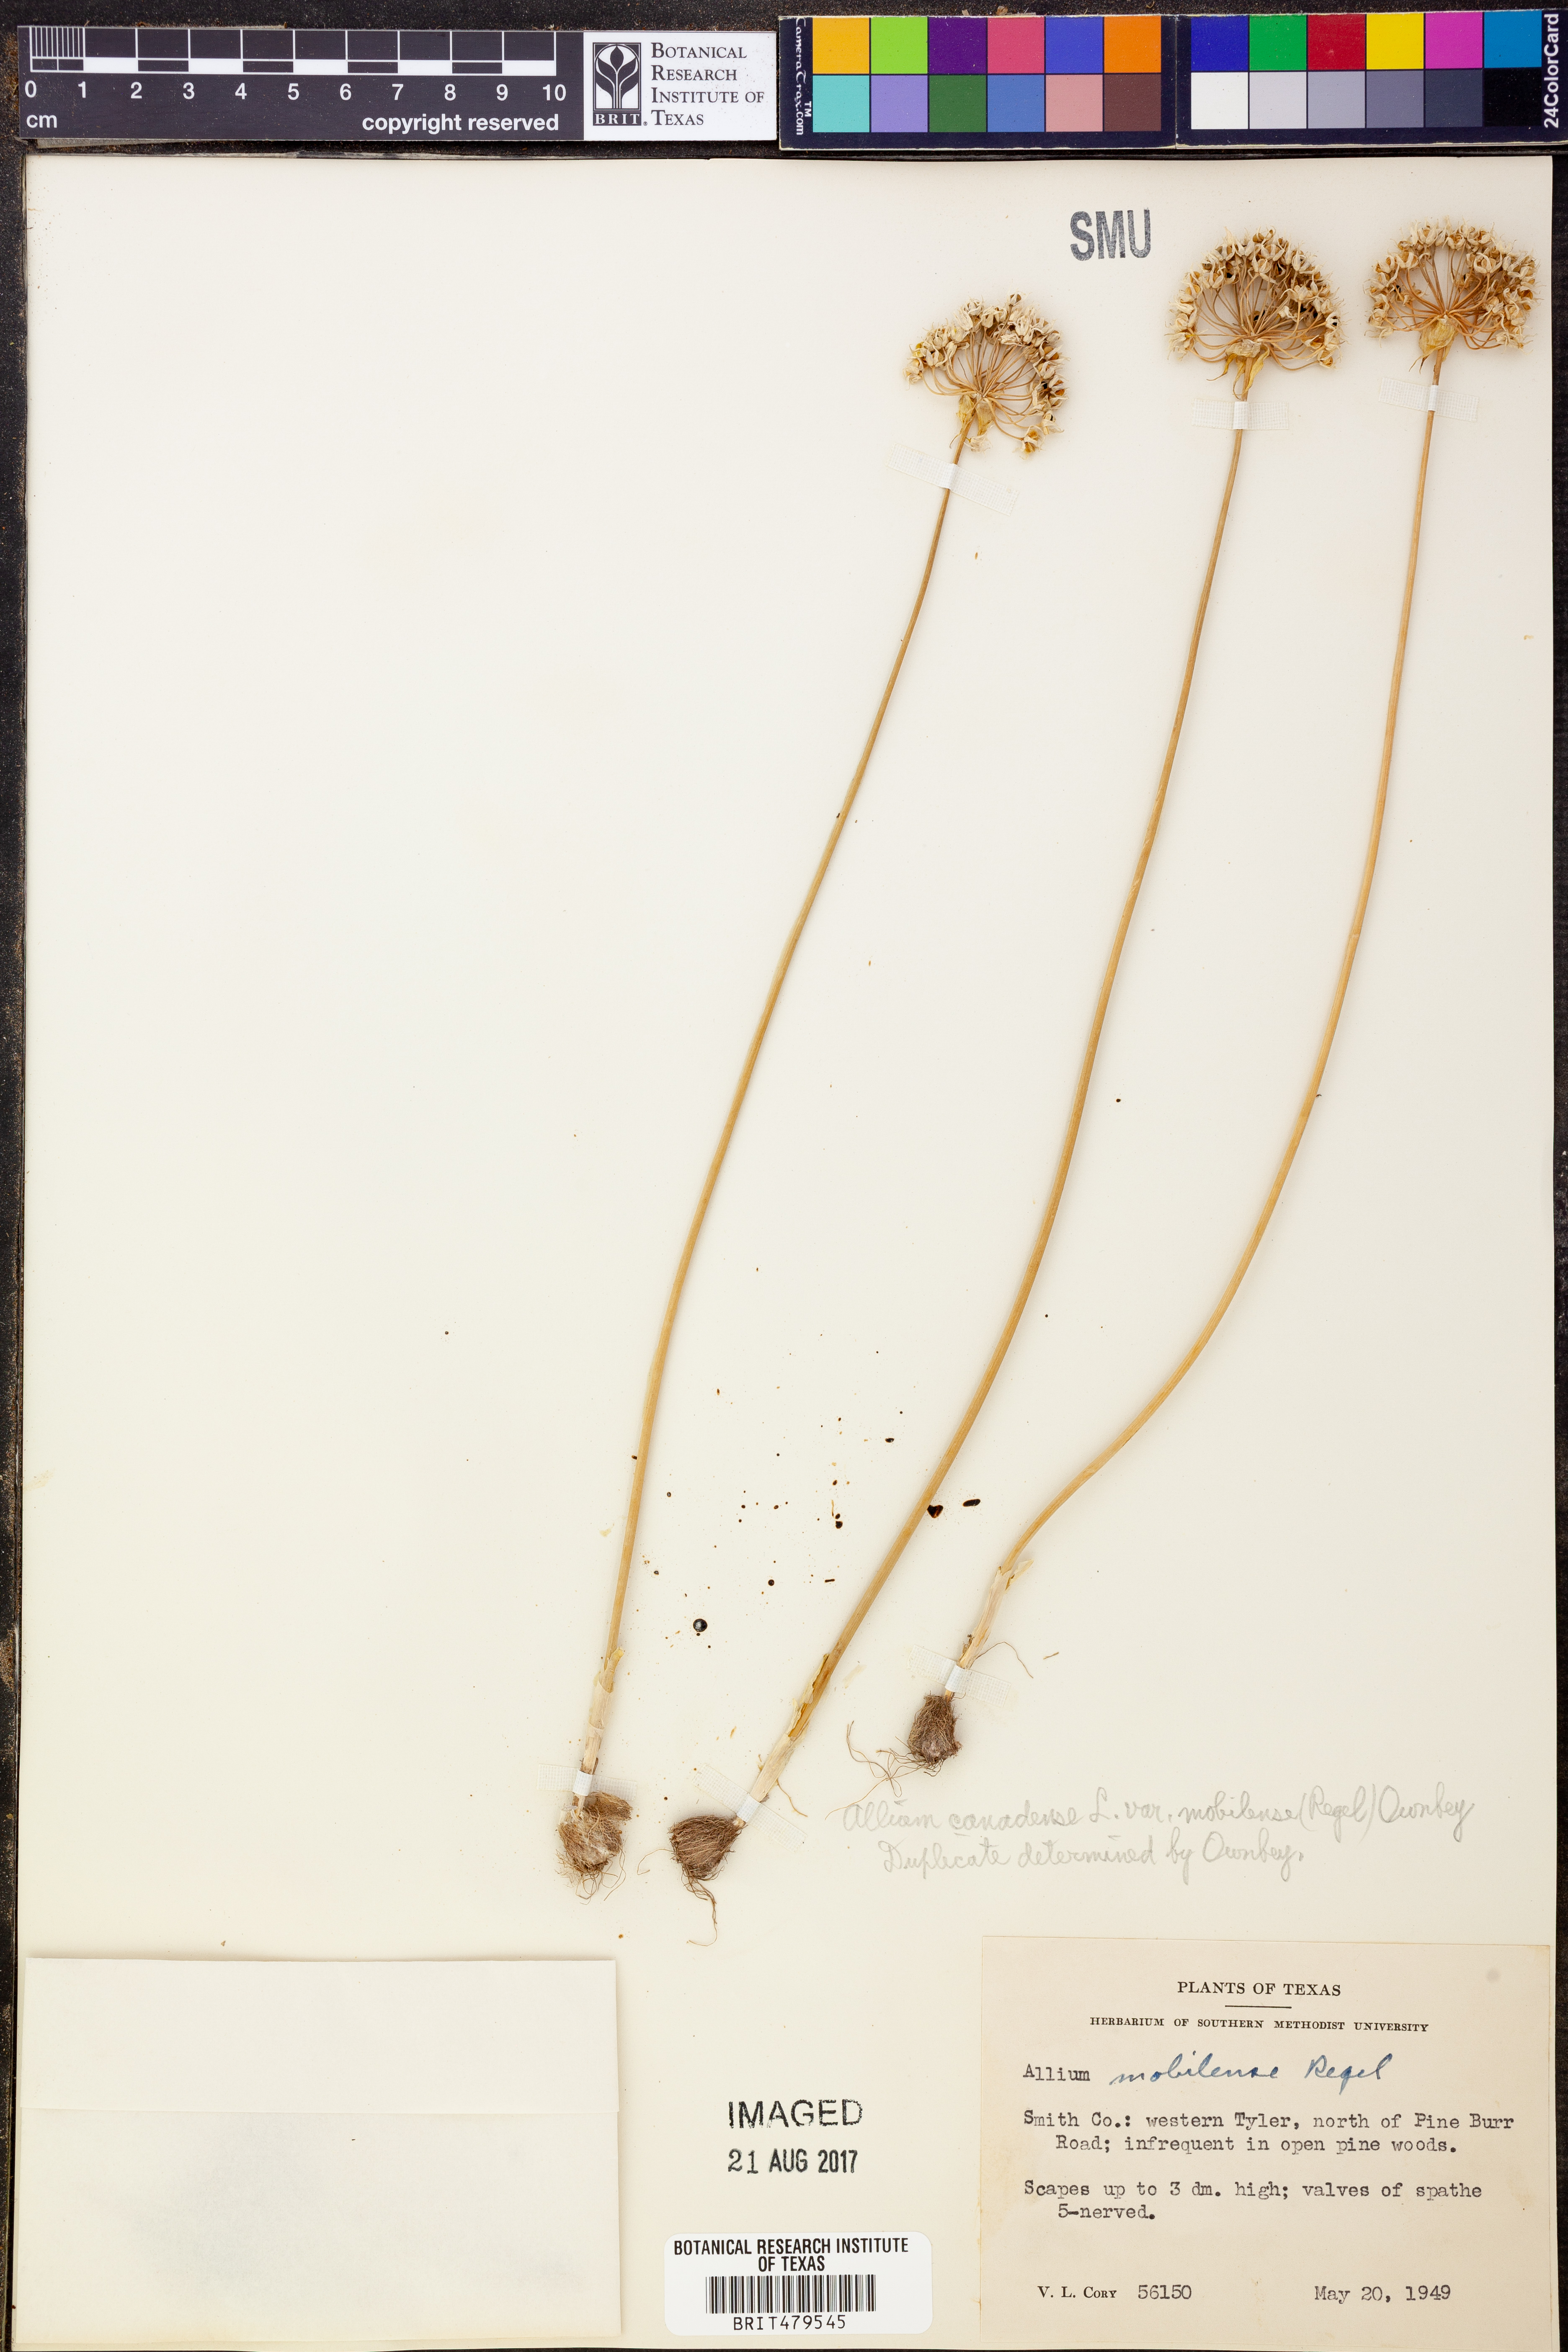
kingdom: Plantae
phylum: Tracheophyta
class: Liliopsida
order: Asparagales
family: Amaryllidaceae
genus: Allium
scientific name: Allium canadense
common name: Meadow garlic
